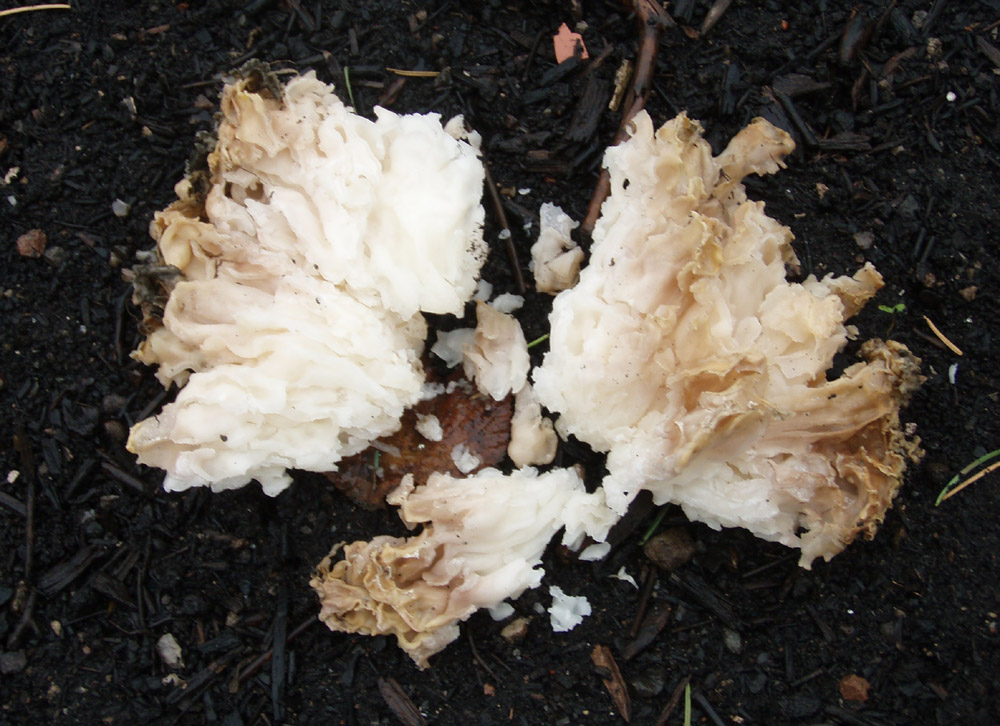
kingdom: Fungi
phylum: Ascomycota
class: Pezizomycetes
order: Pezizales
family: Pezizaceae
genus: Daleomyces
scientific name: Daleomyces phillipsii
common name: blomkåls-bægersvamp
